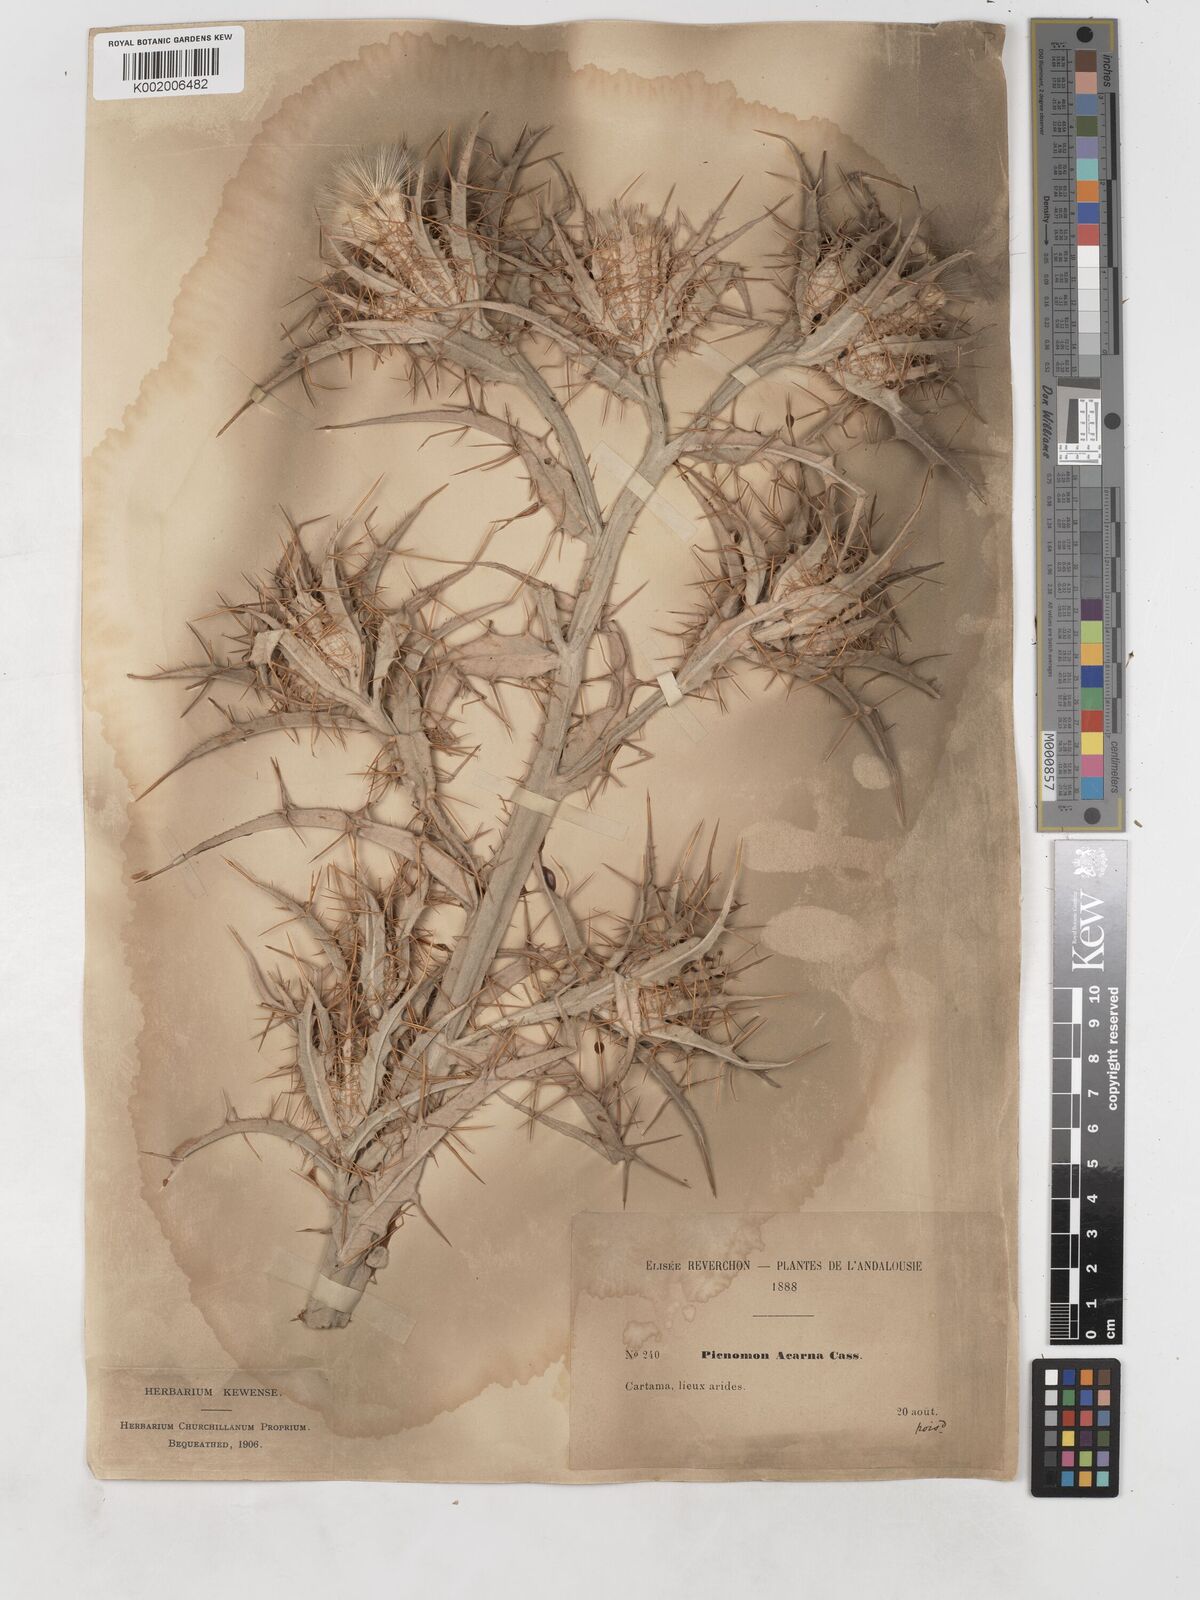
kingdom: Plantae
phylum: Tracheophyta
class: Magnoliopsida
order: Asterales
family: Asteraceae
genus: Picnomon
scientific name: Picnomon acarna
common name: Soldier thistle
